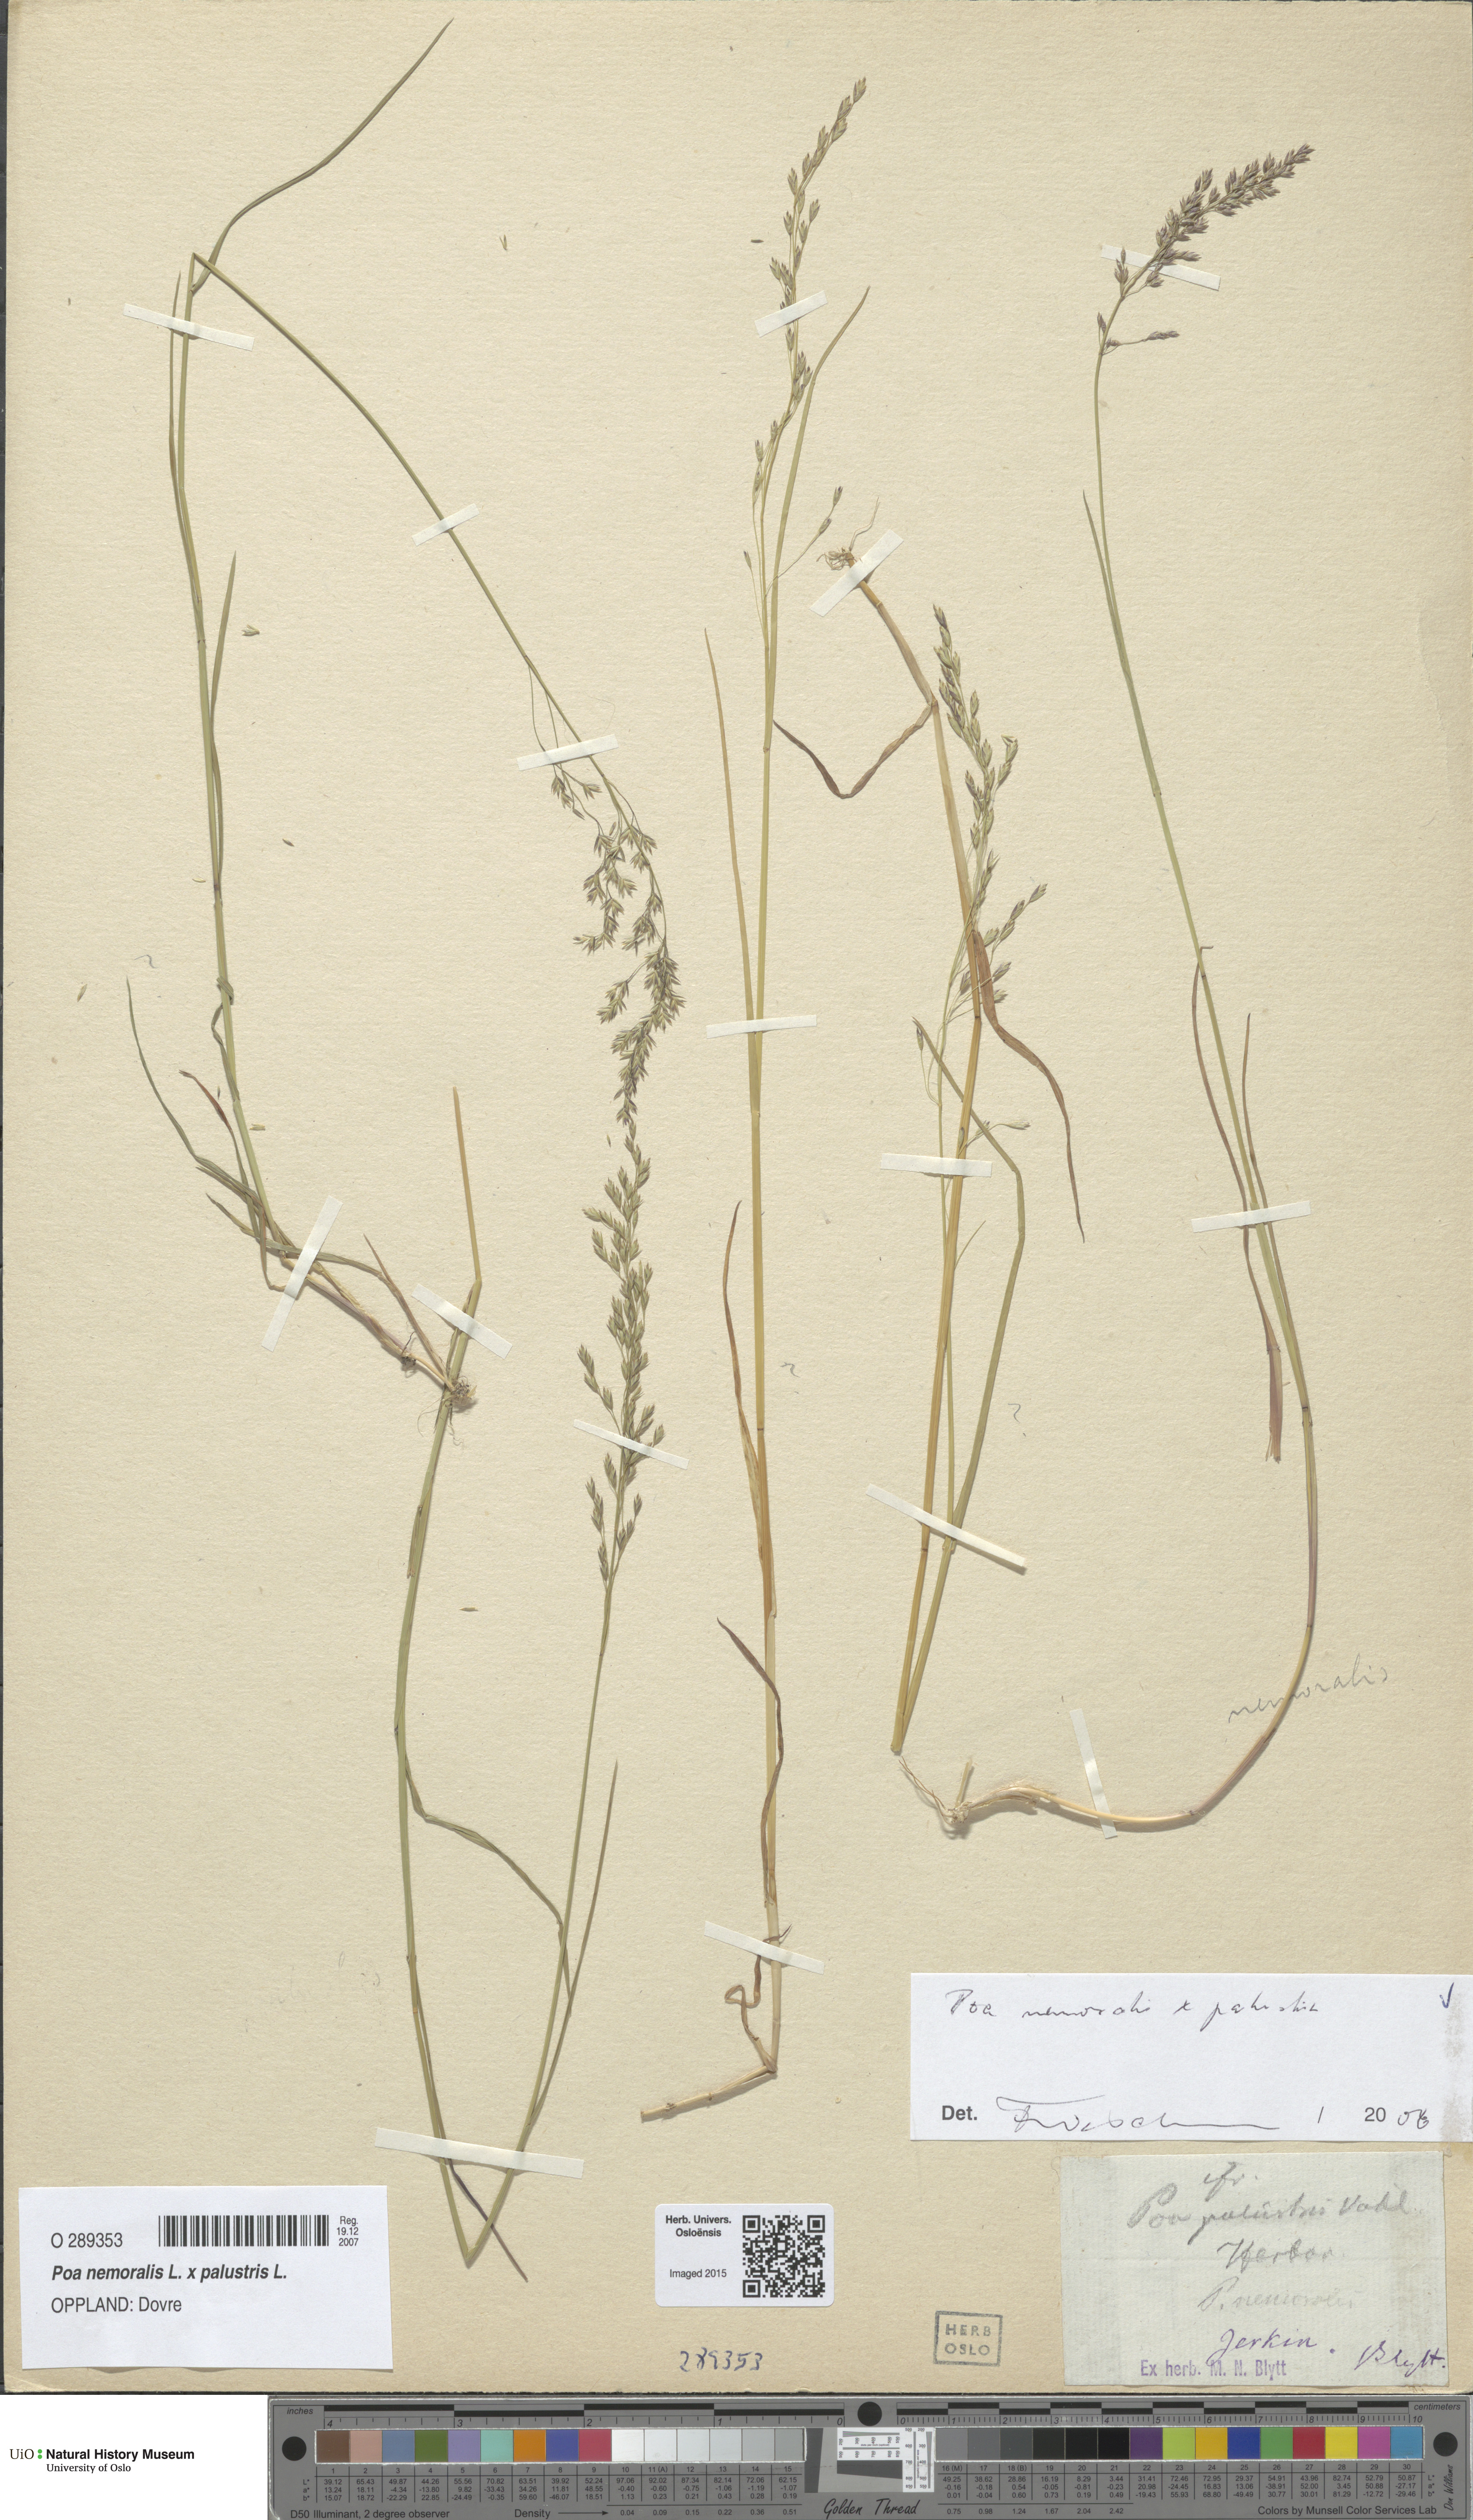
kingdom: Plantae
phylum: Tracheophyta
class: Liliopsida
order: Poales
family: Poaceae
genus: Poa
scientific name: Poa
